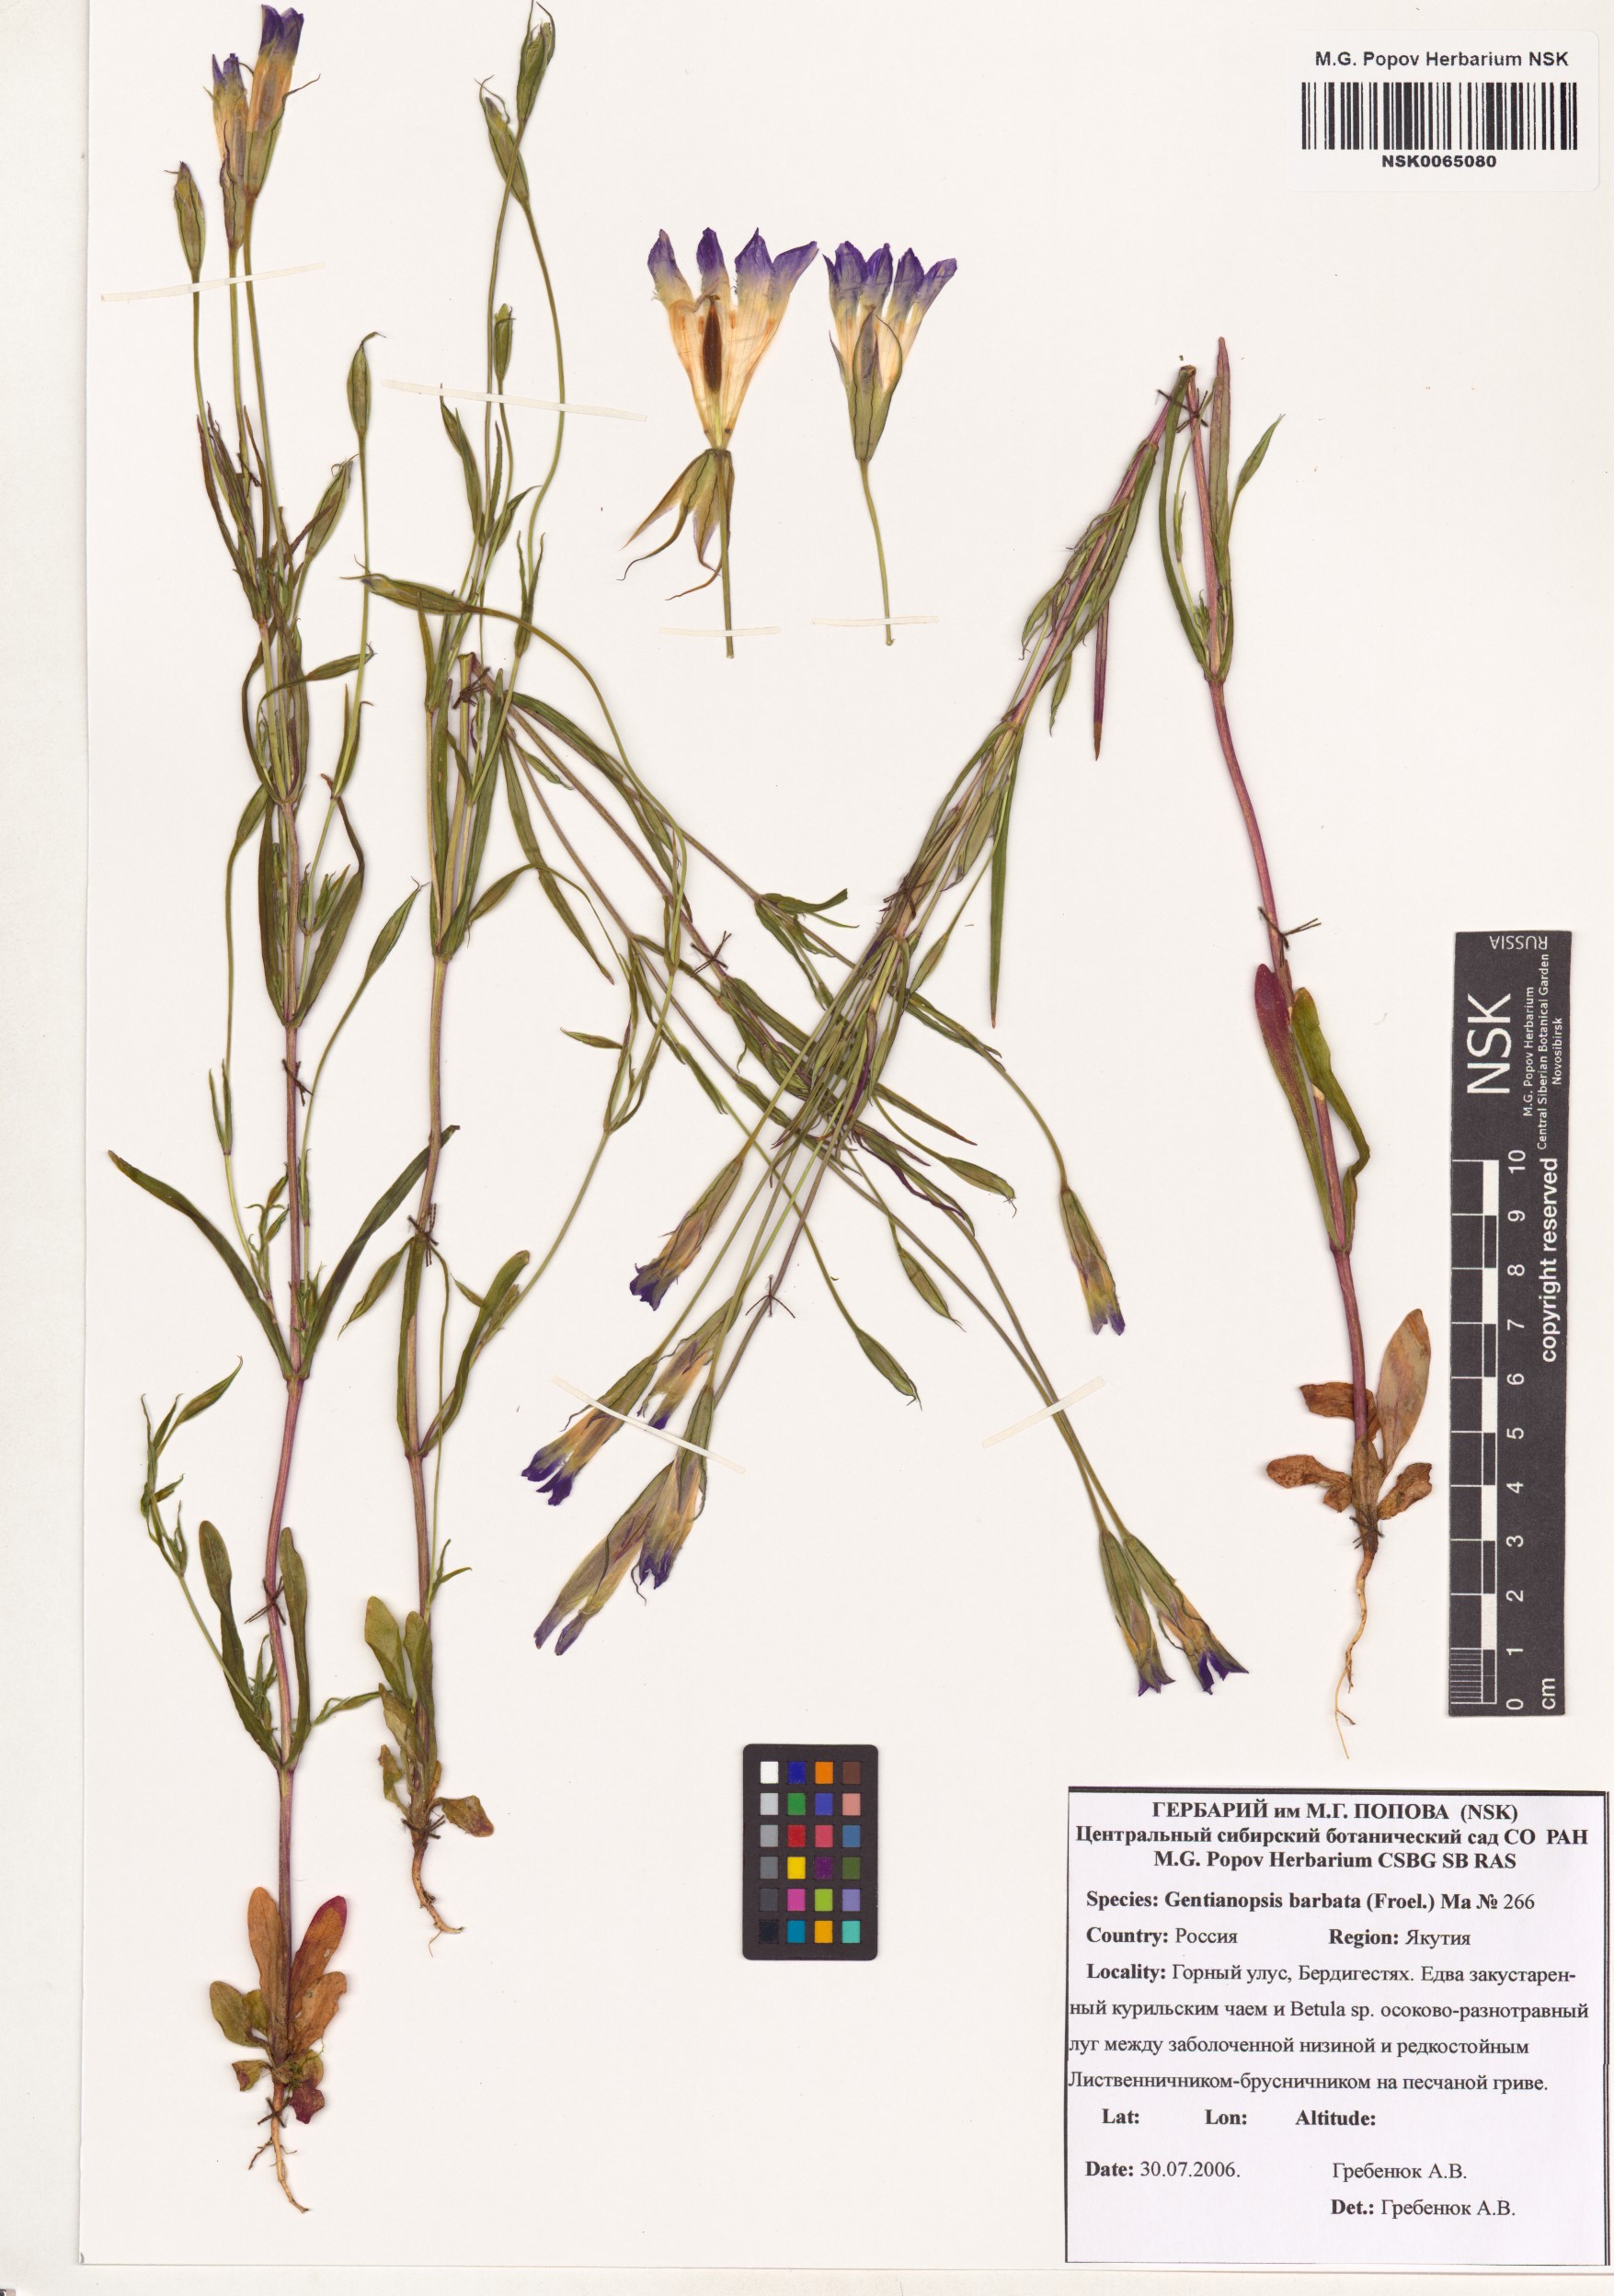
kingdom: Plantae
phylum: Tracheophyta
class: Magnoliopsida
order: Gentianales
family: Gentianaceae
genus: Gentianopsis
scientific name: Gentianopsis barbata
